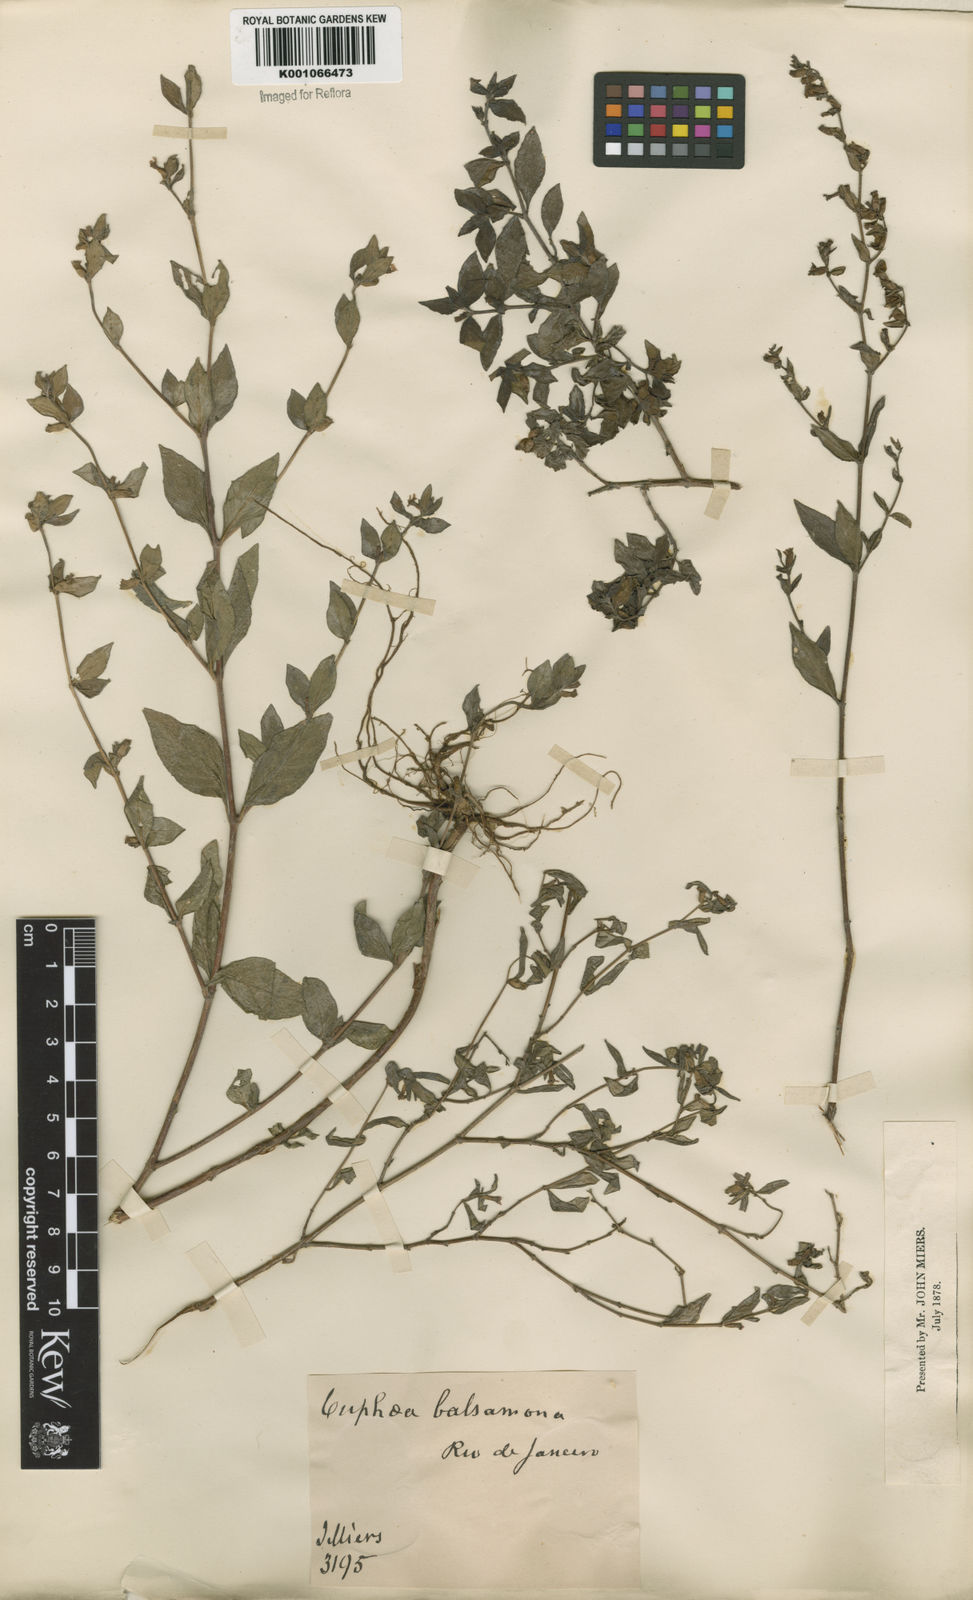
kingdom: Plantae
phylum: Tracheophyta
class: Magnoliopsida
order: Myrtales
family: Lythraceae
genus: Cuphea
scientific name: Cuphea carthagenensis
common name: Colombian waxweed
